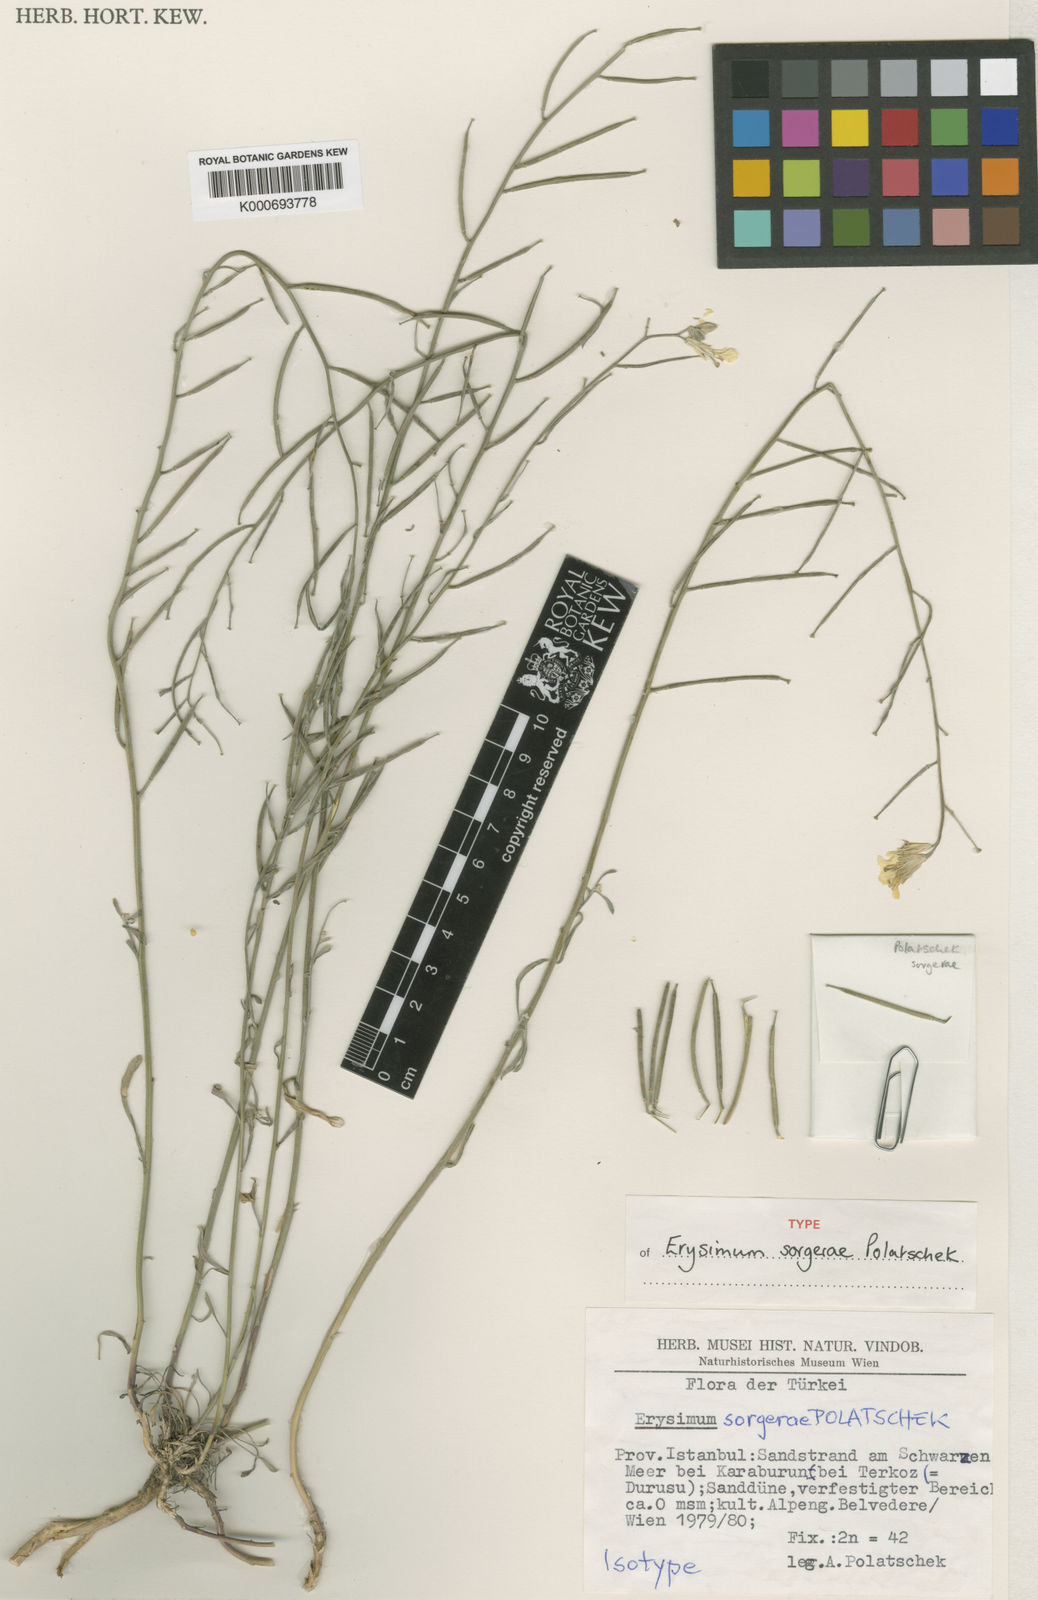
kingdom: Plantae
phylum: Tracheophyta
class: Magnoliopsida
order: Brassicales
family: Brassicaceae
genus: Erysimum
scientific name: Erysimum sorgerae
